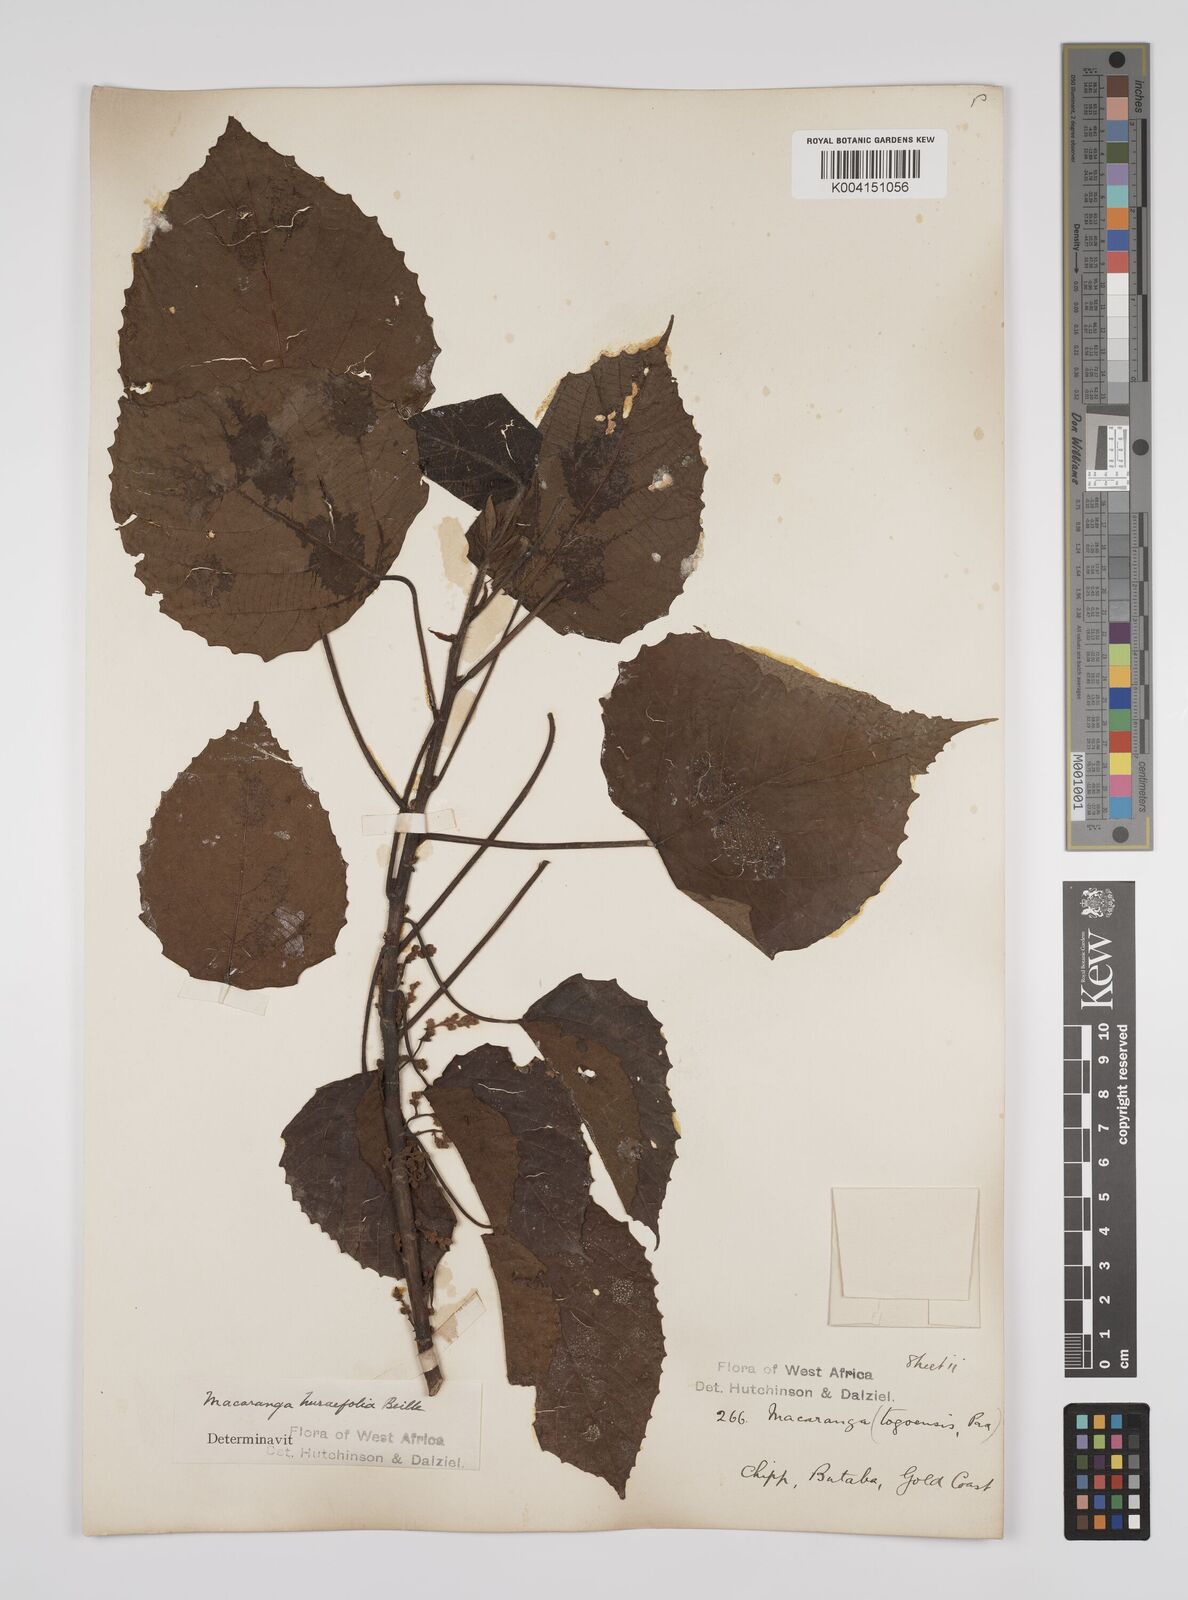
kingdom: Plantae
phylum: Tracheophyta
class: Magnoliopsida
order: Malpighiales
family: Euphorbiaceae
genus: Macaranga
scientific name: Macaranga hurifolia
